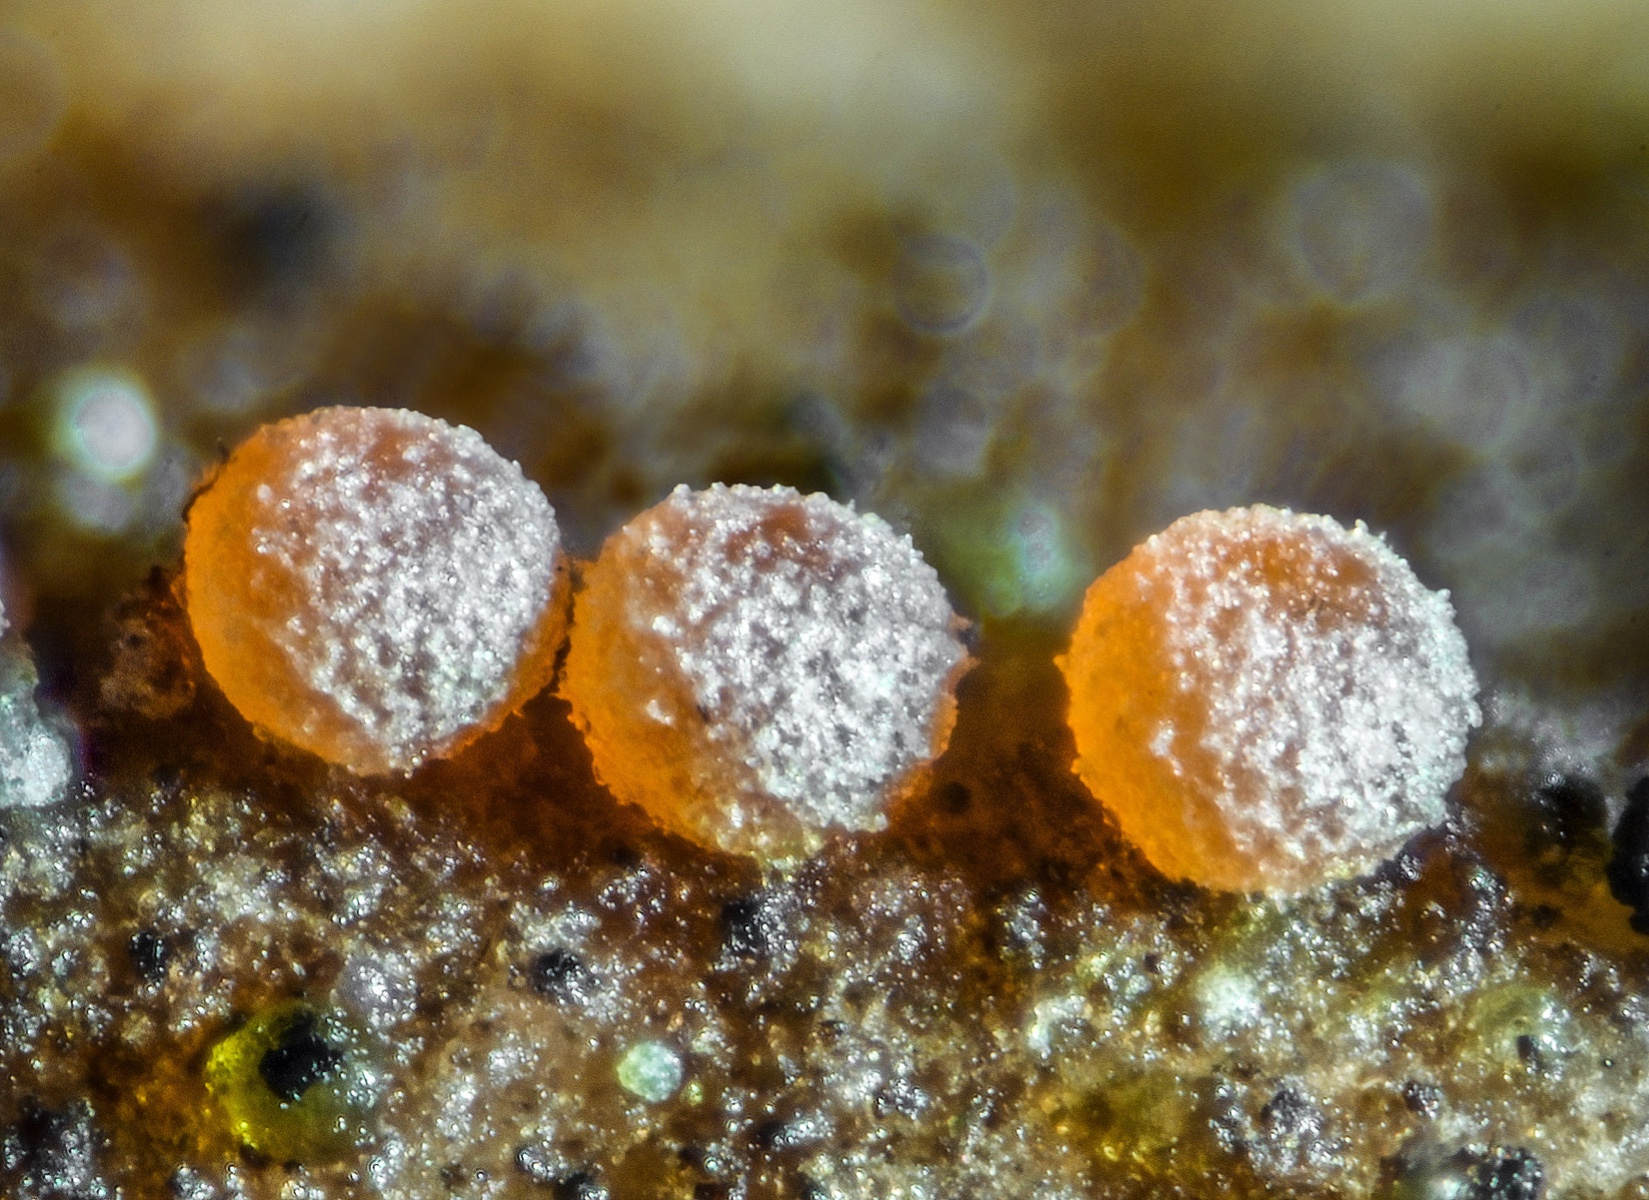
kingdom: Fungi
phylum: Ascomycota
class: Sordariomycetes
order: Hypocreales
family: Bionectriaceae
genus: Nectriopsis
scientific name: Nectriopsis lecanodes
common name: skjoldlav-gyldenkerne
